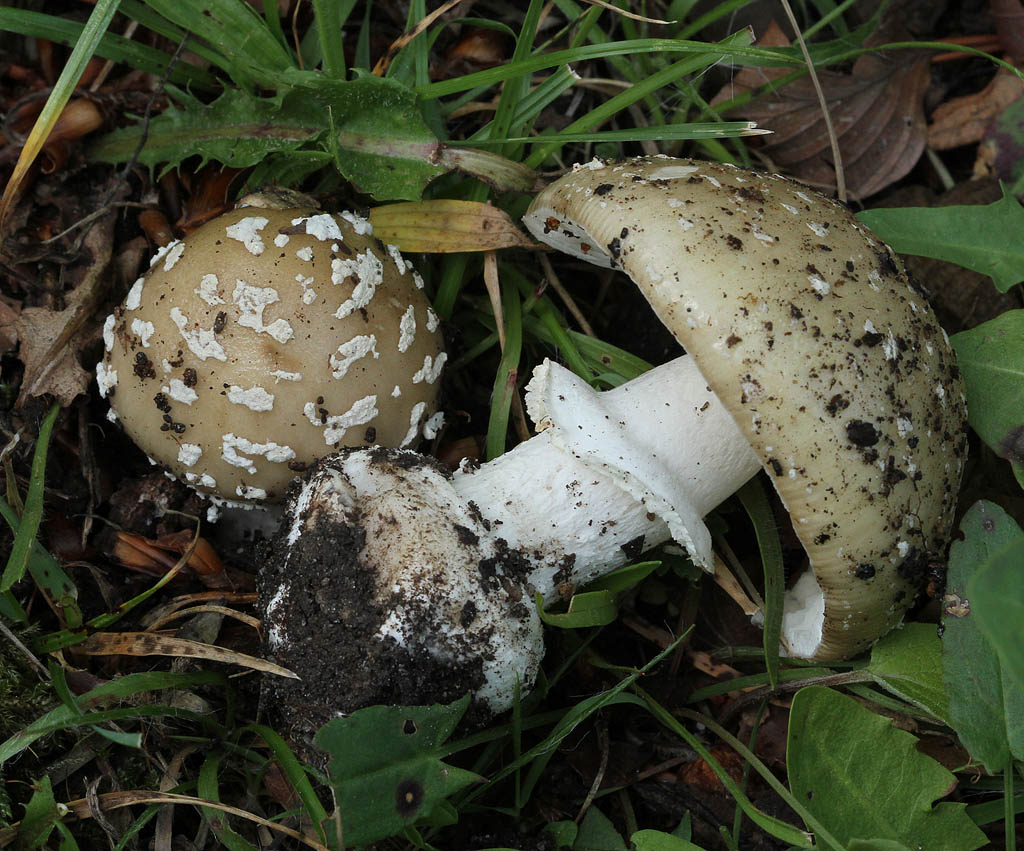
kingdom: Fungi
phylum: Basidiomycota
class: Agaricomycetes
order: Agaricales
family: Amanitaceae
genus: Amanita
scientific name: Amanita pantherina
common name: panter-fluesvamp
